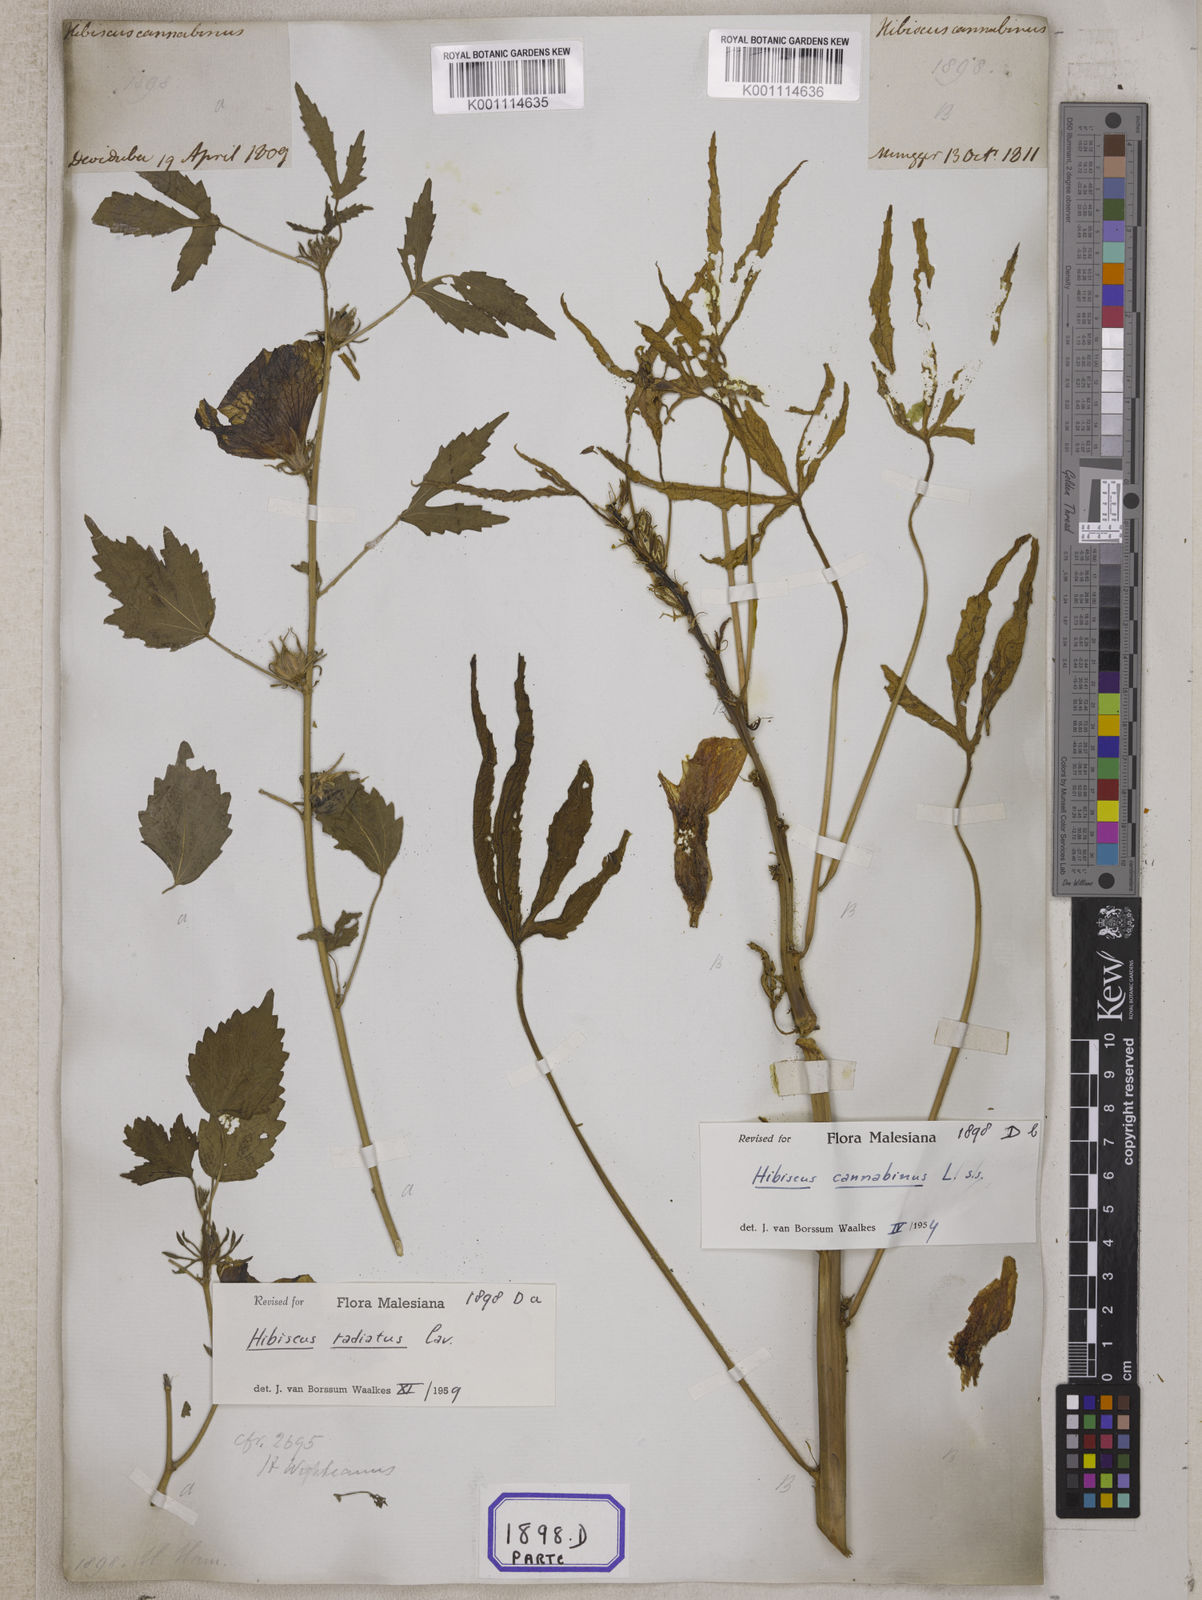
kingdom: Plantae
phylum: Tracheophyta
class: Magnoliopsida
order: Malvales
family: Malvaceae
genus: Hibiscus
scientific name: Hibiscus cannabinus
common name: Brown indianhemp
